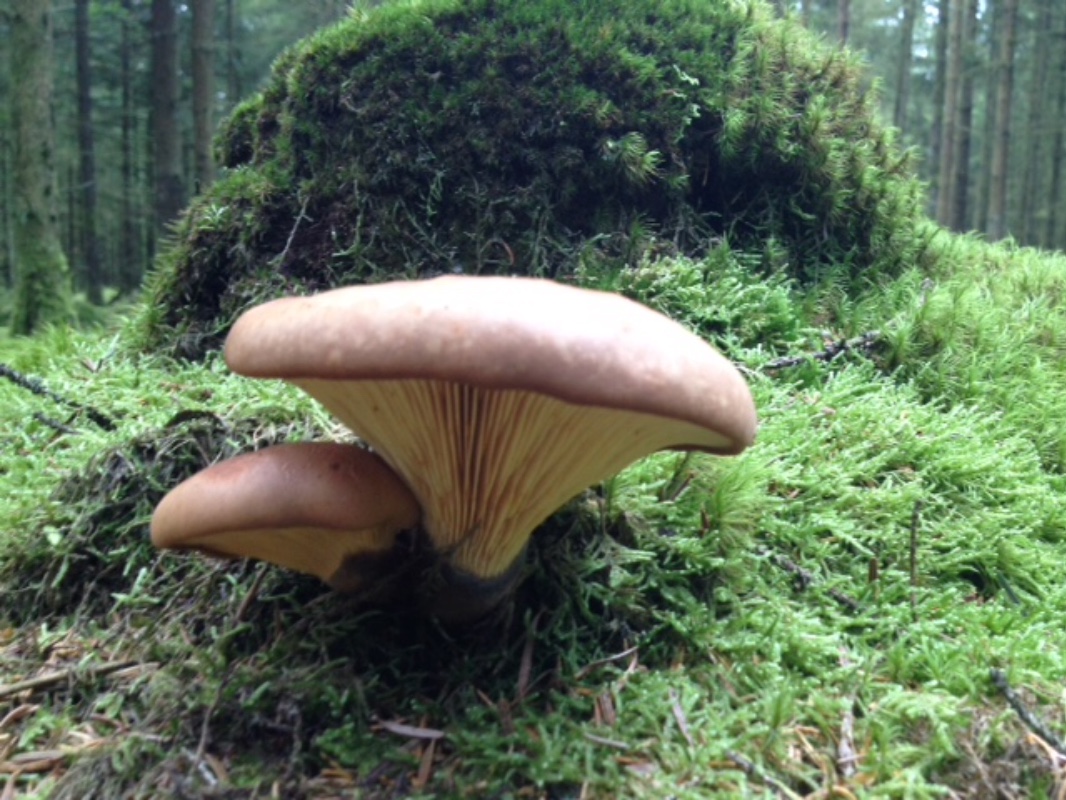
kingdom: Fungi
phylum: Basidiomycota
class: Agaricomycetes
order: Boletales
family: Tapinellaceae
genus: Tapinella
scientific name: Tapinella atrotomentosa
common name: sortfiltet viftesvamp
